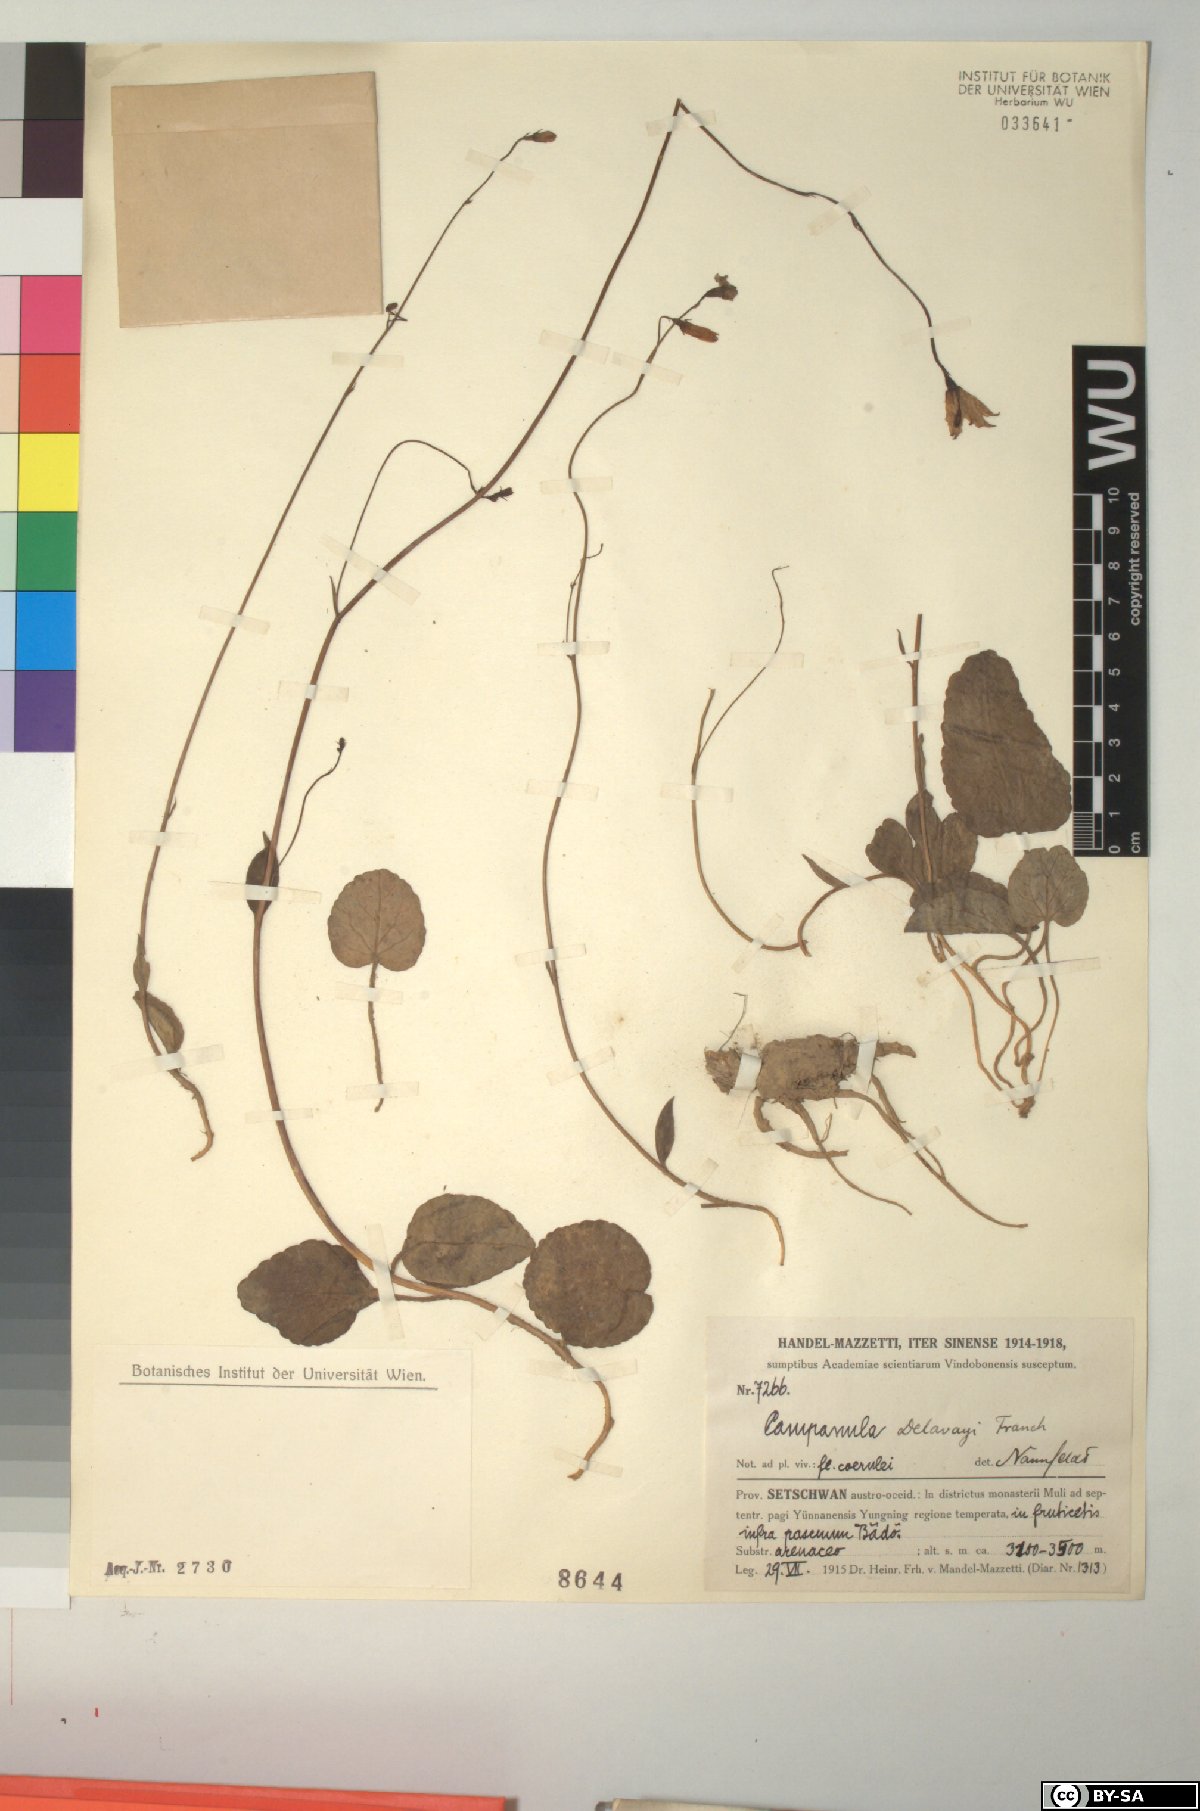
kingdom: Plantae
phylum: Tracheophyta
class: Magnoliopsida
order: Asterales
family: Campanulaceae
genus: Adenophora
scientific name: Adenophora delavayi
